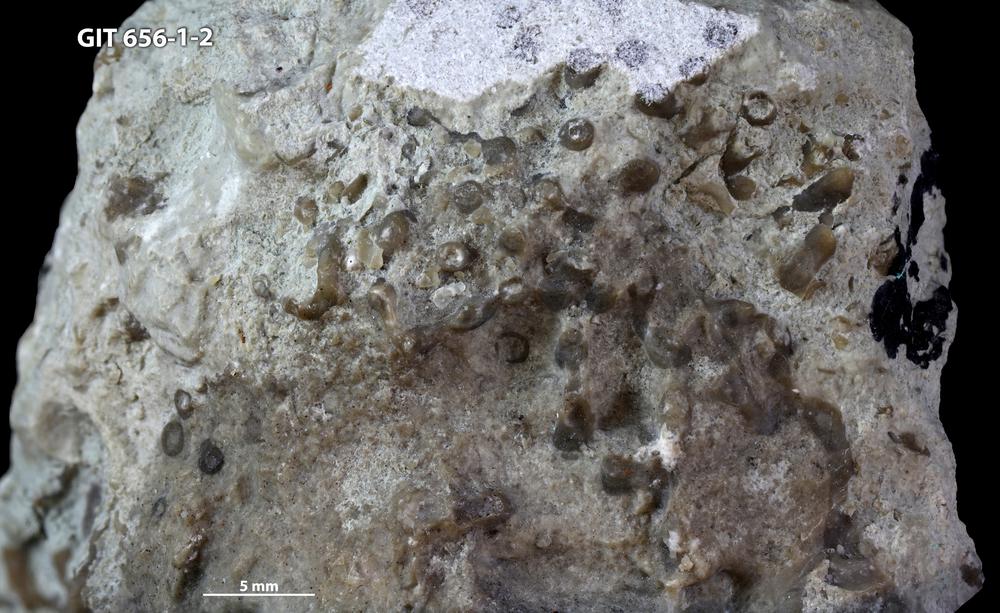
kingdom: Animalia
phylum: Cnidaria
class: Anthozoa
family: Syringoporidae
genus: Syringopora
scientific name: Syringopora
